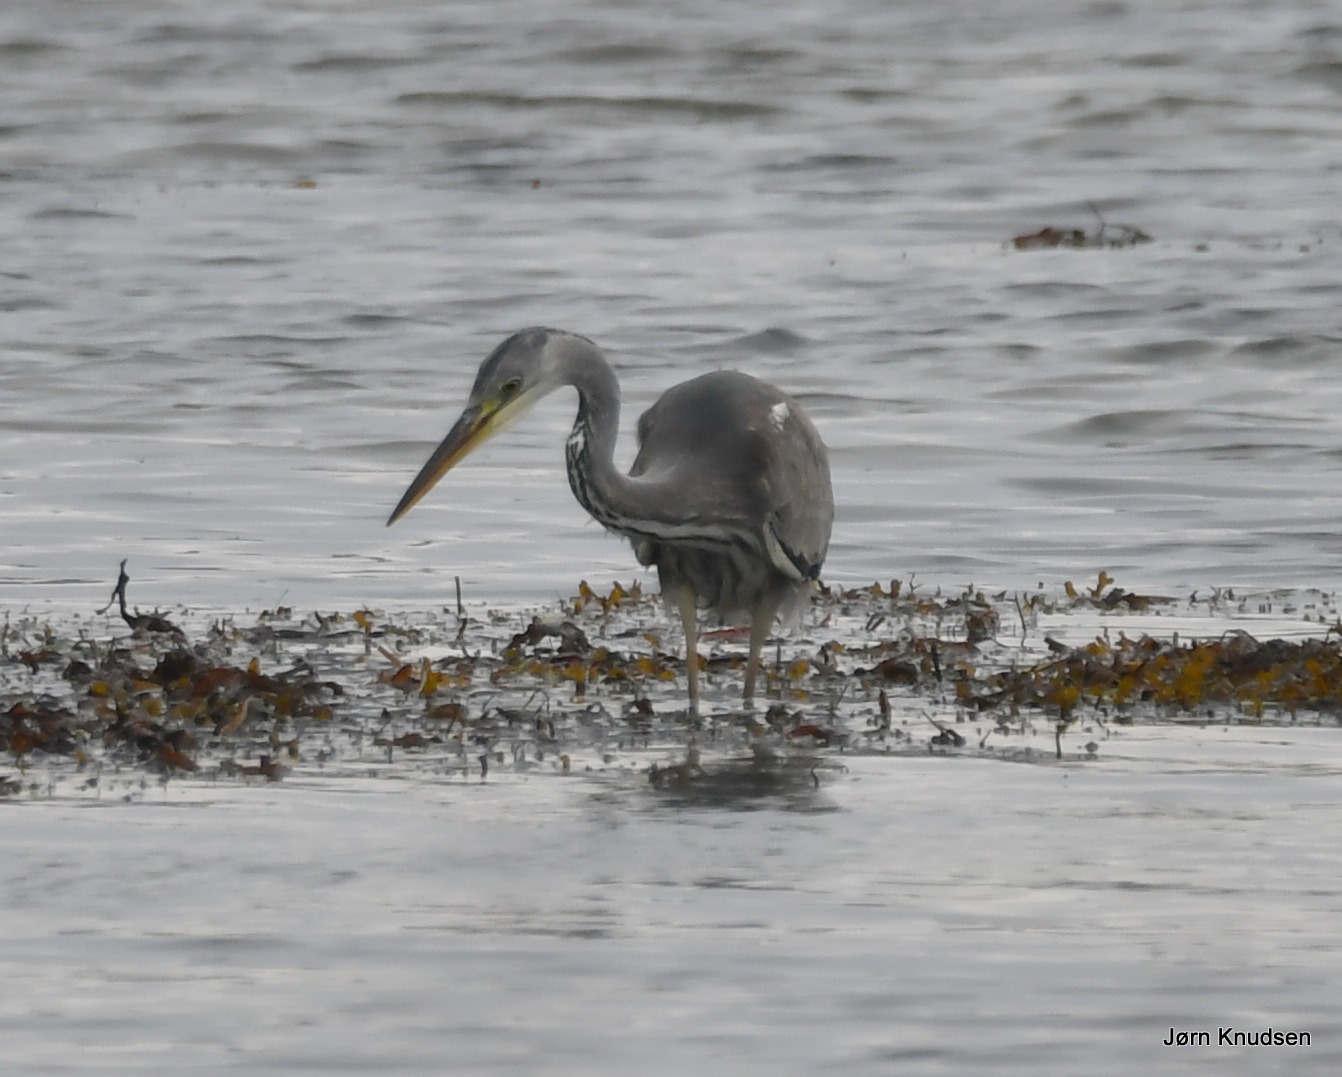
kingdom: Animalia
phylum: Chordata
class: Aves
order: Pelecaniformes
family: Ardeidae
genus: Ardea
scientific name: Ardea cinerea
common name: Fiskehejre
